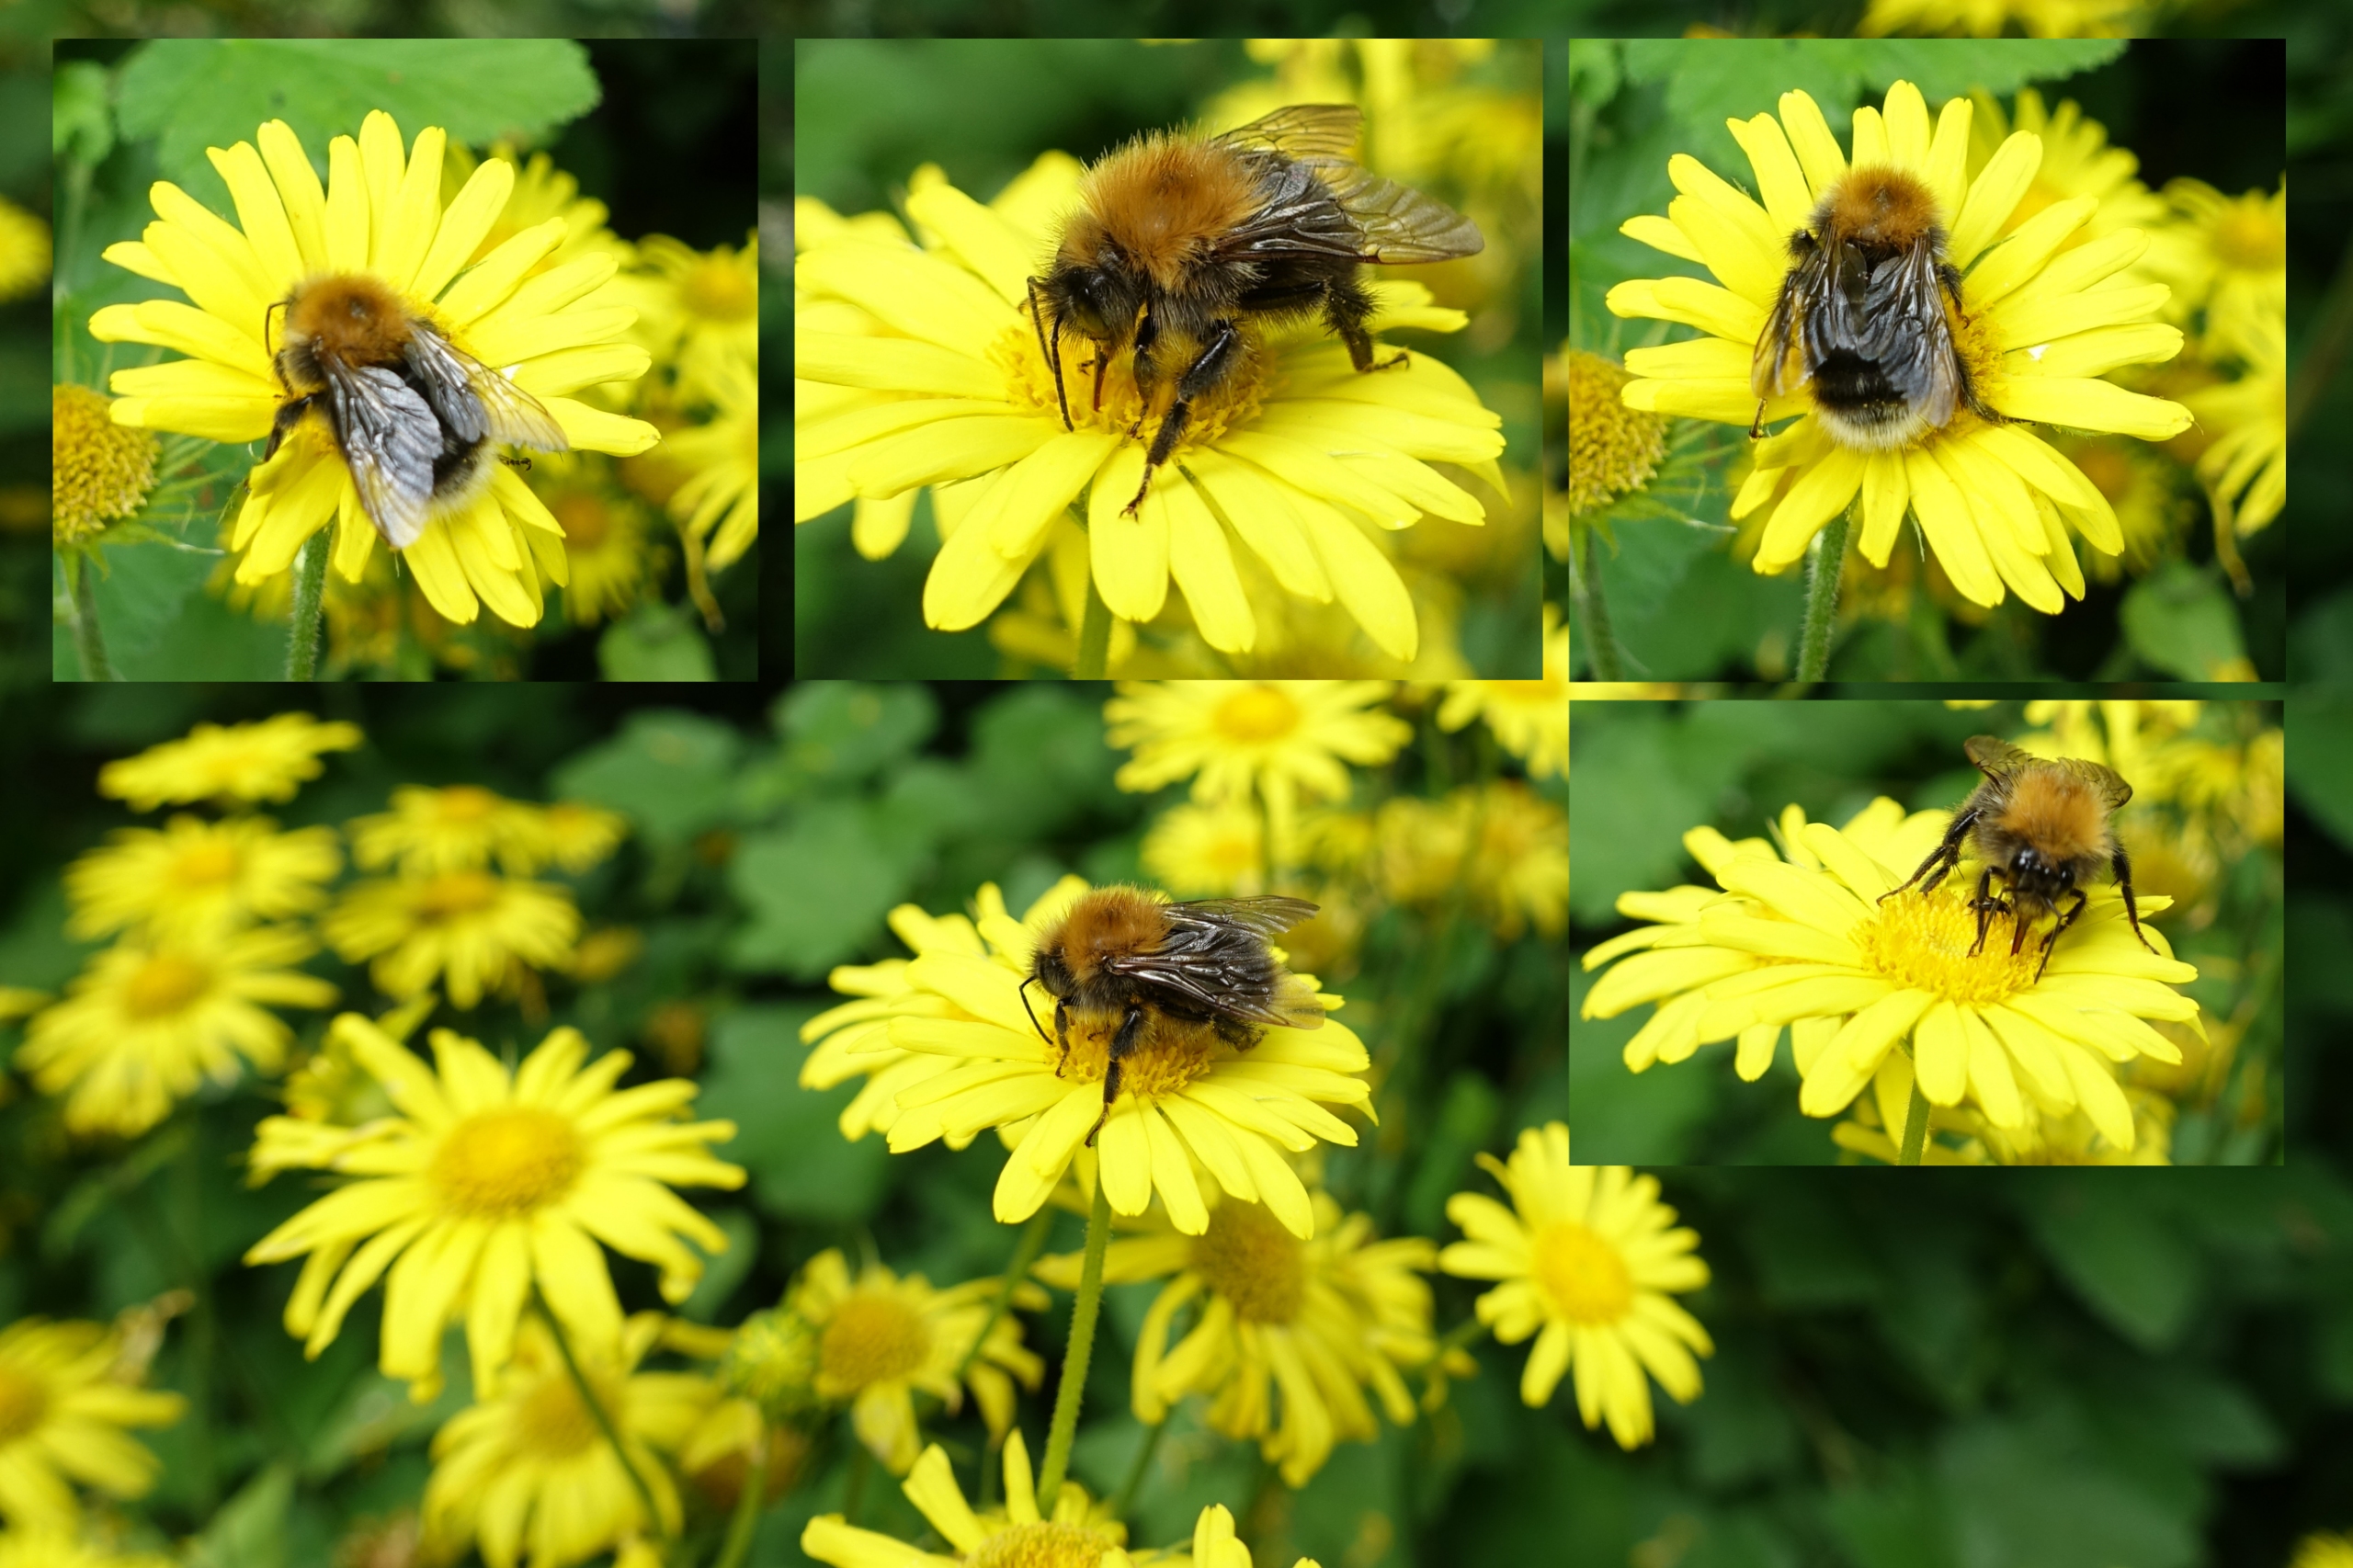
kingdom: Animalia
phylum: Arthropoda
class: Insecta
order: Hymenoptera
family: Apidae
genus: Bombus
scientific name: Bombus hypnorum
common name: Hushumle
